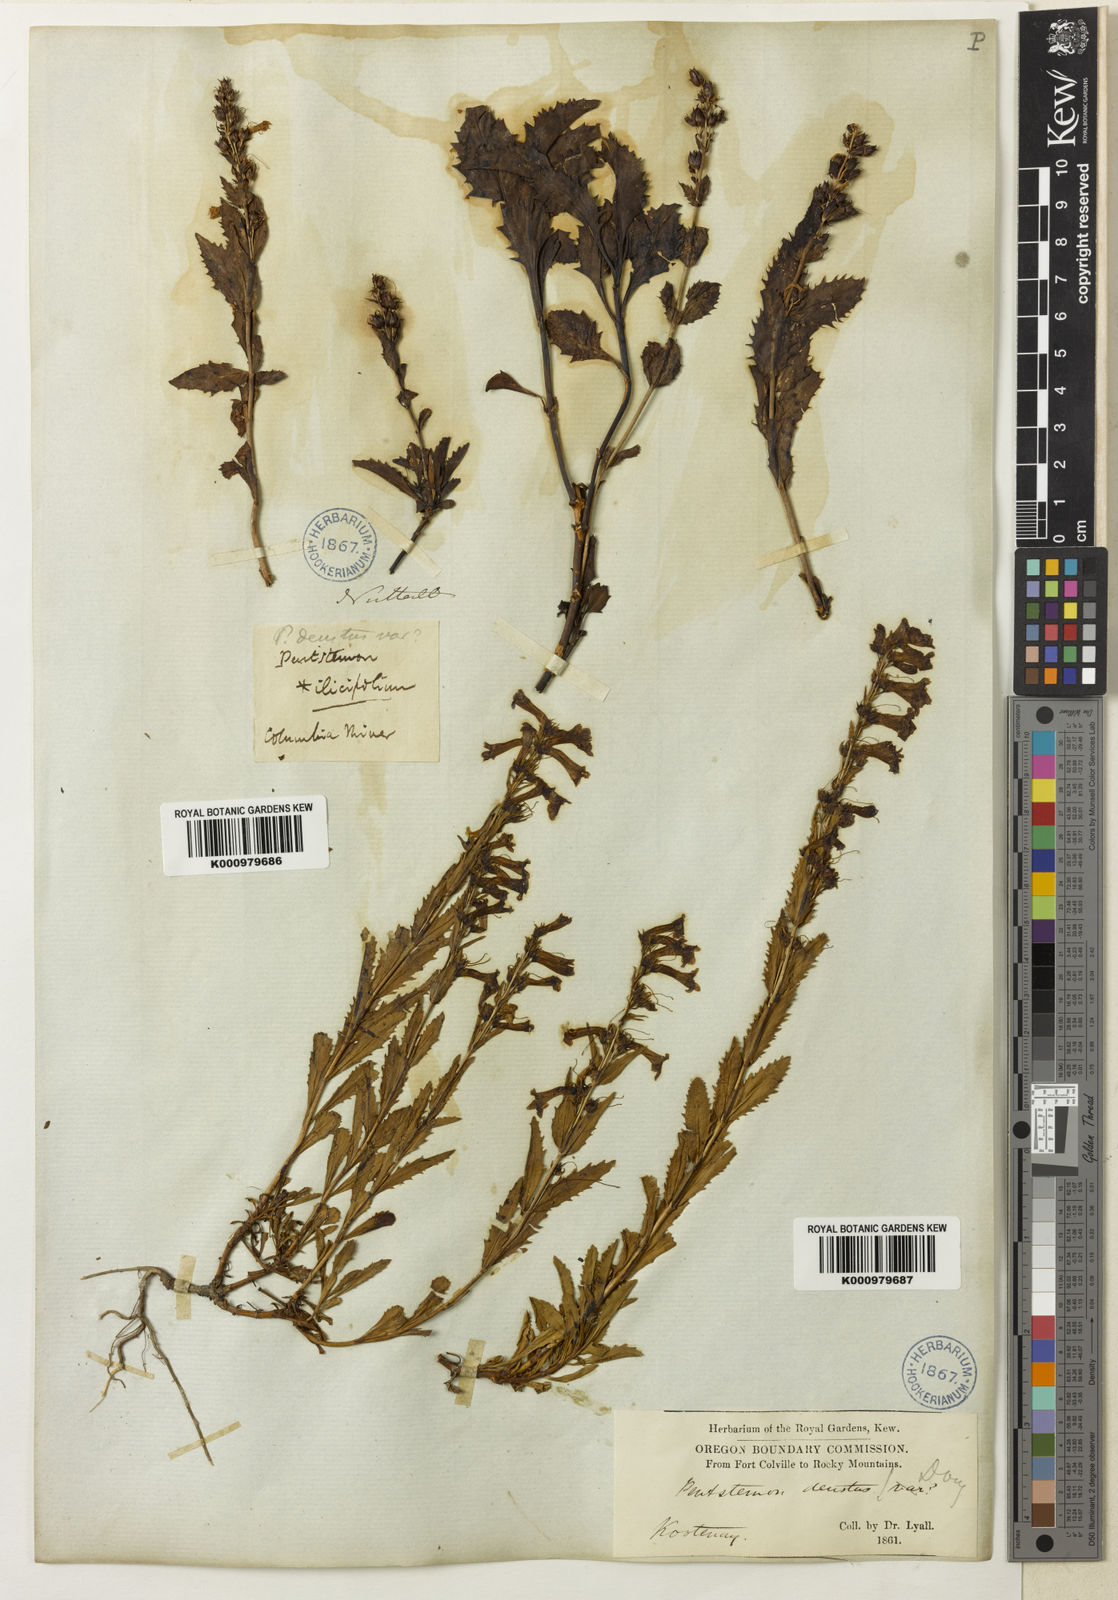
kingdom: Plantae
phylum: Tracheophyta
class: Magnoliopsida
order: Lamiales
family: Plantaginaceae
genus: Penstemon
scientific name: Penstemon
